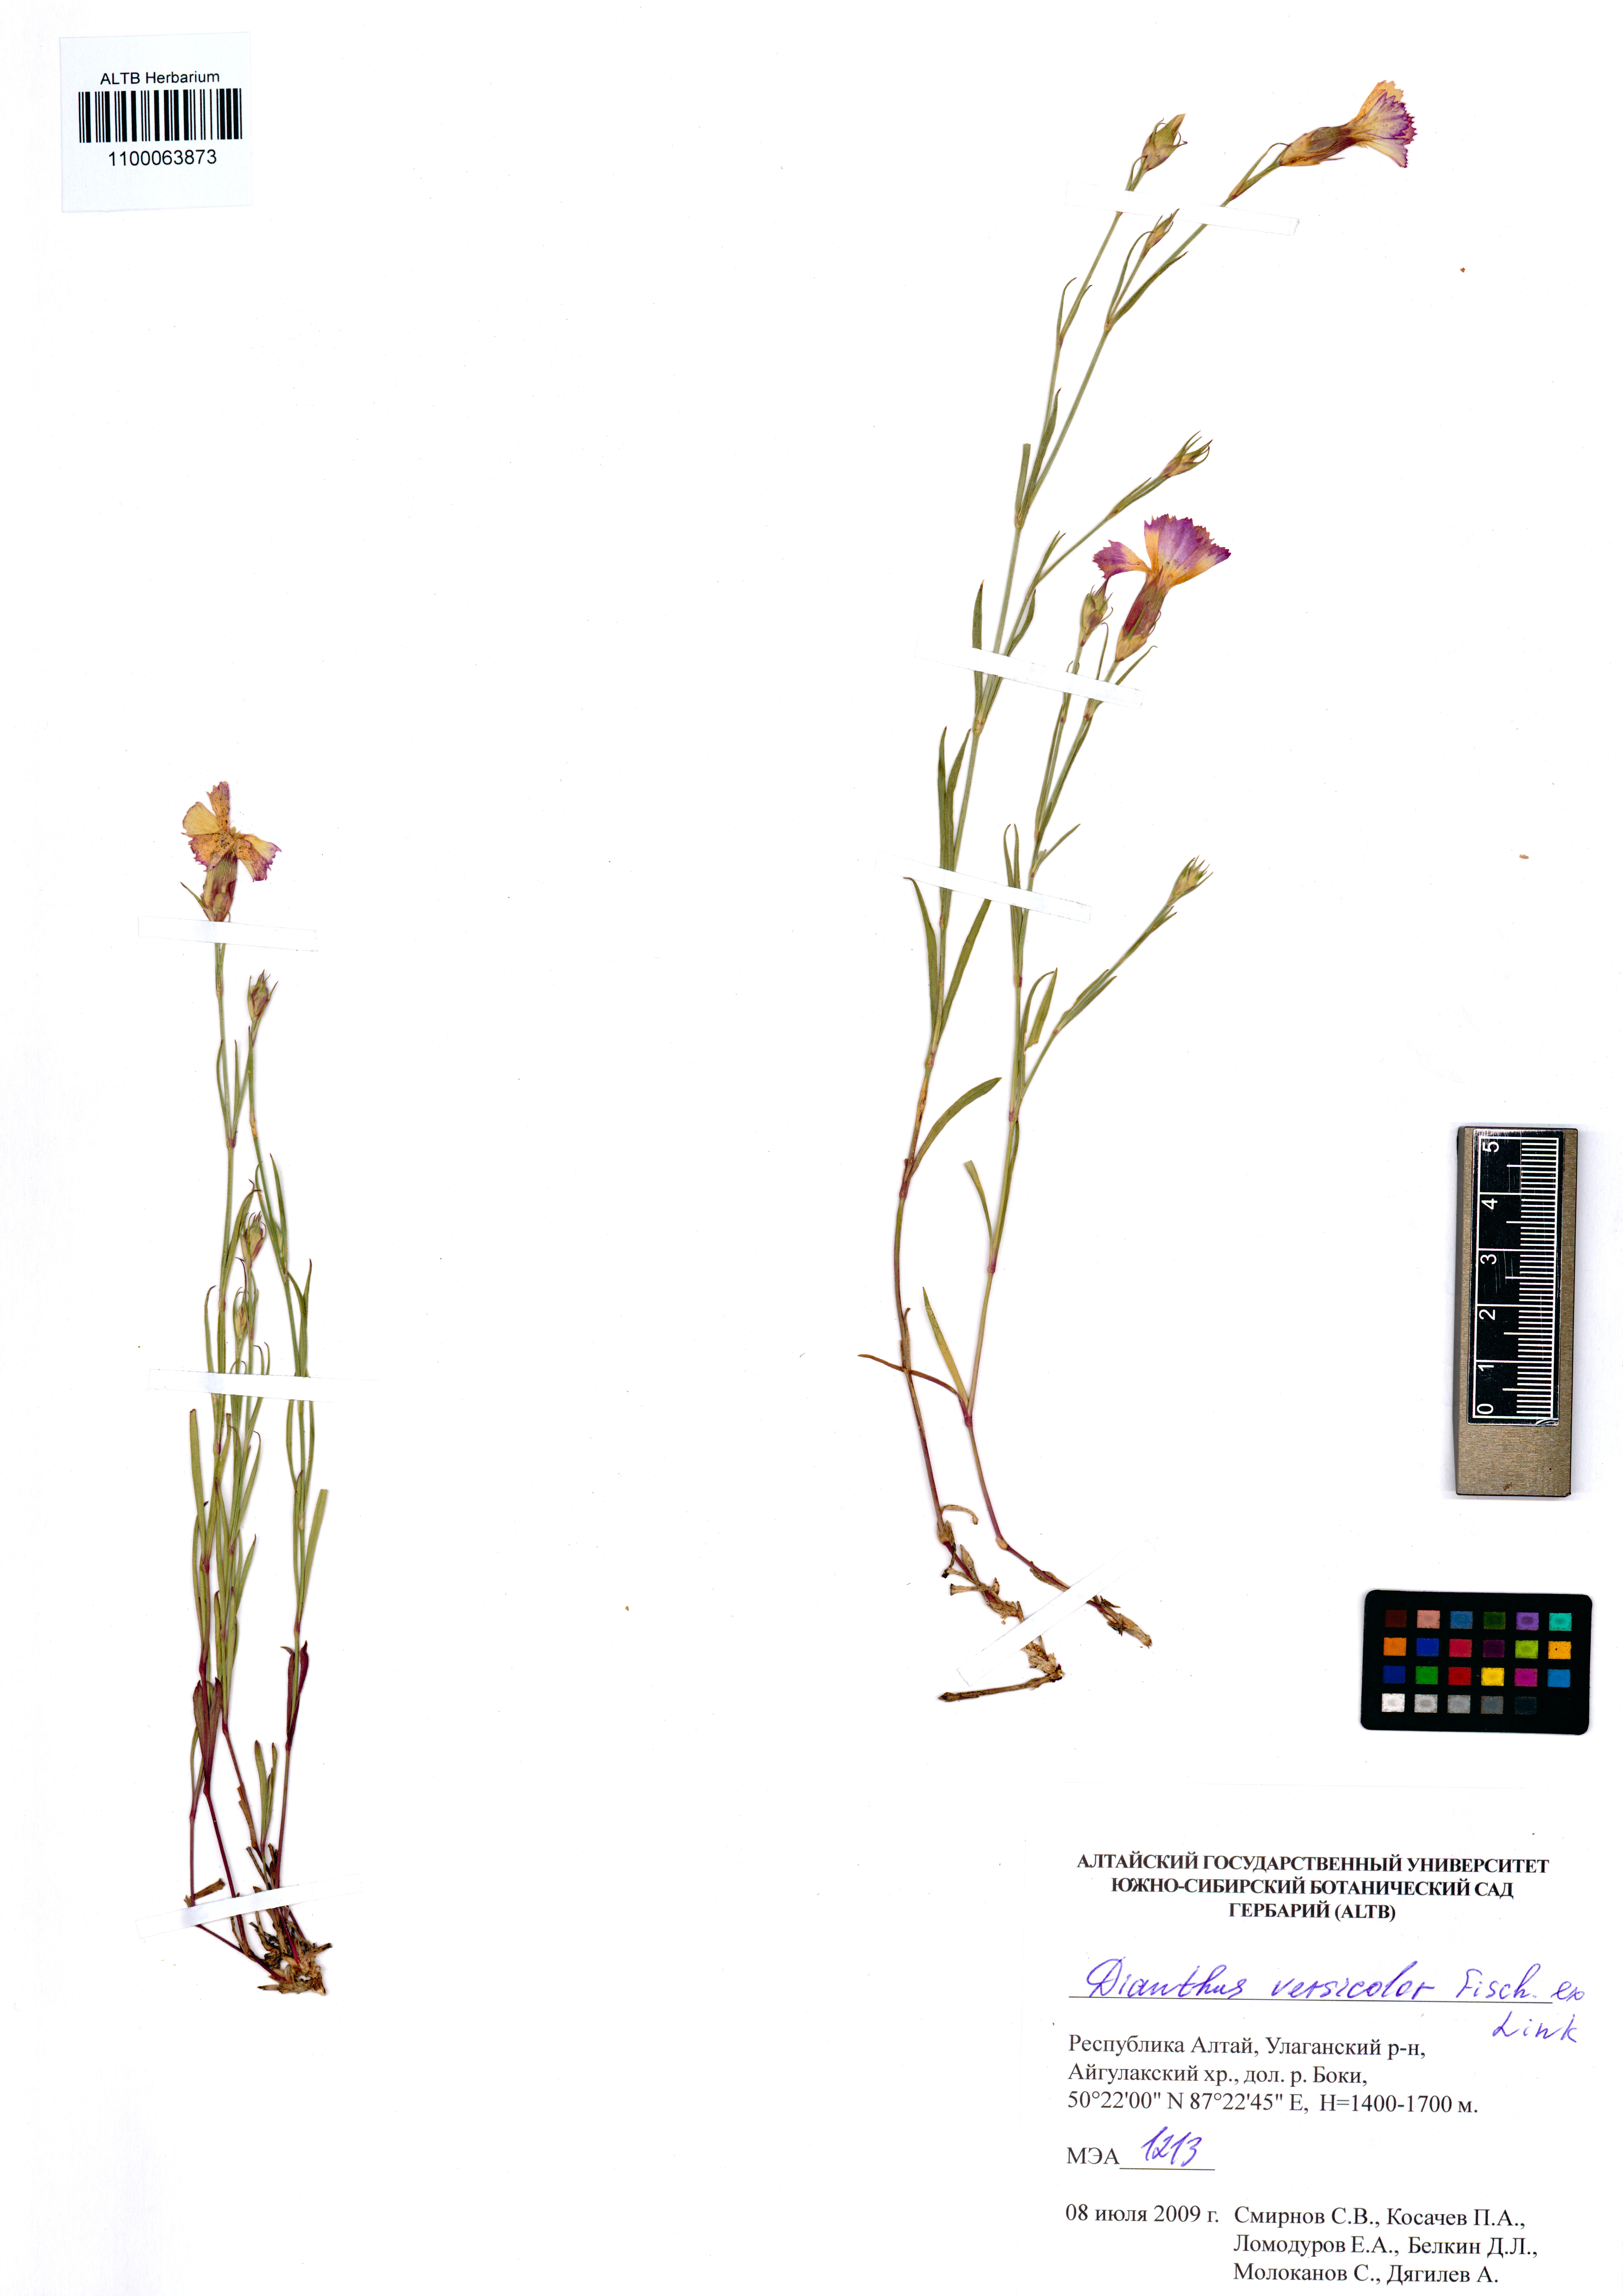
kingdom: Plantae
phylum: Tracheophyta
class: Magnoliopsida
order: Caryophyllales
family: Caryophyllaceae
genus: Dianthus
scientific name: Dianthus chinensis
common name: Rainbow pink
